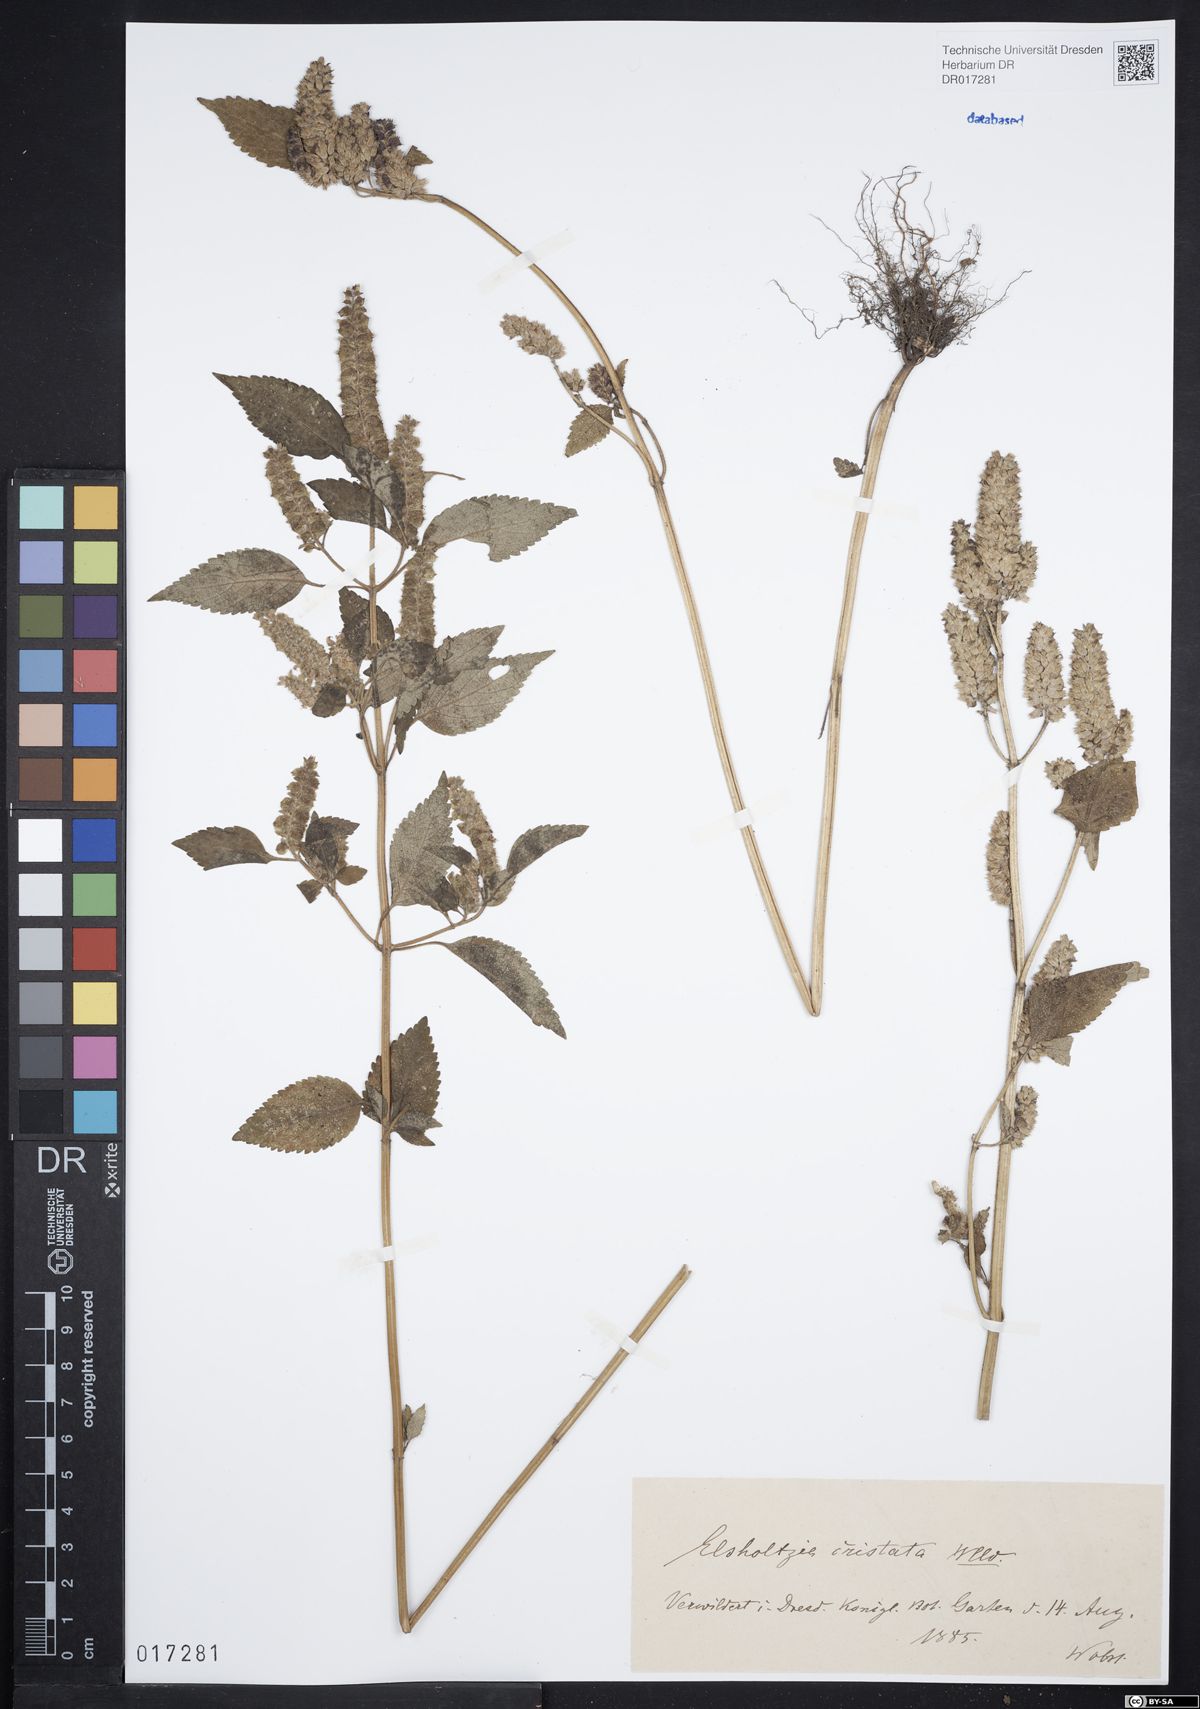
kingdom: Plantae
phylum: Tracheophyta
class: Magnoliopsida
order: Lamiales
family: Lamiaceae
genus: Elsholtzia
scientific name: Elsholtzia ciliata
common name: Ciliate elsholtzia
